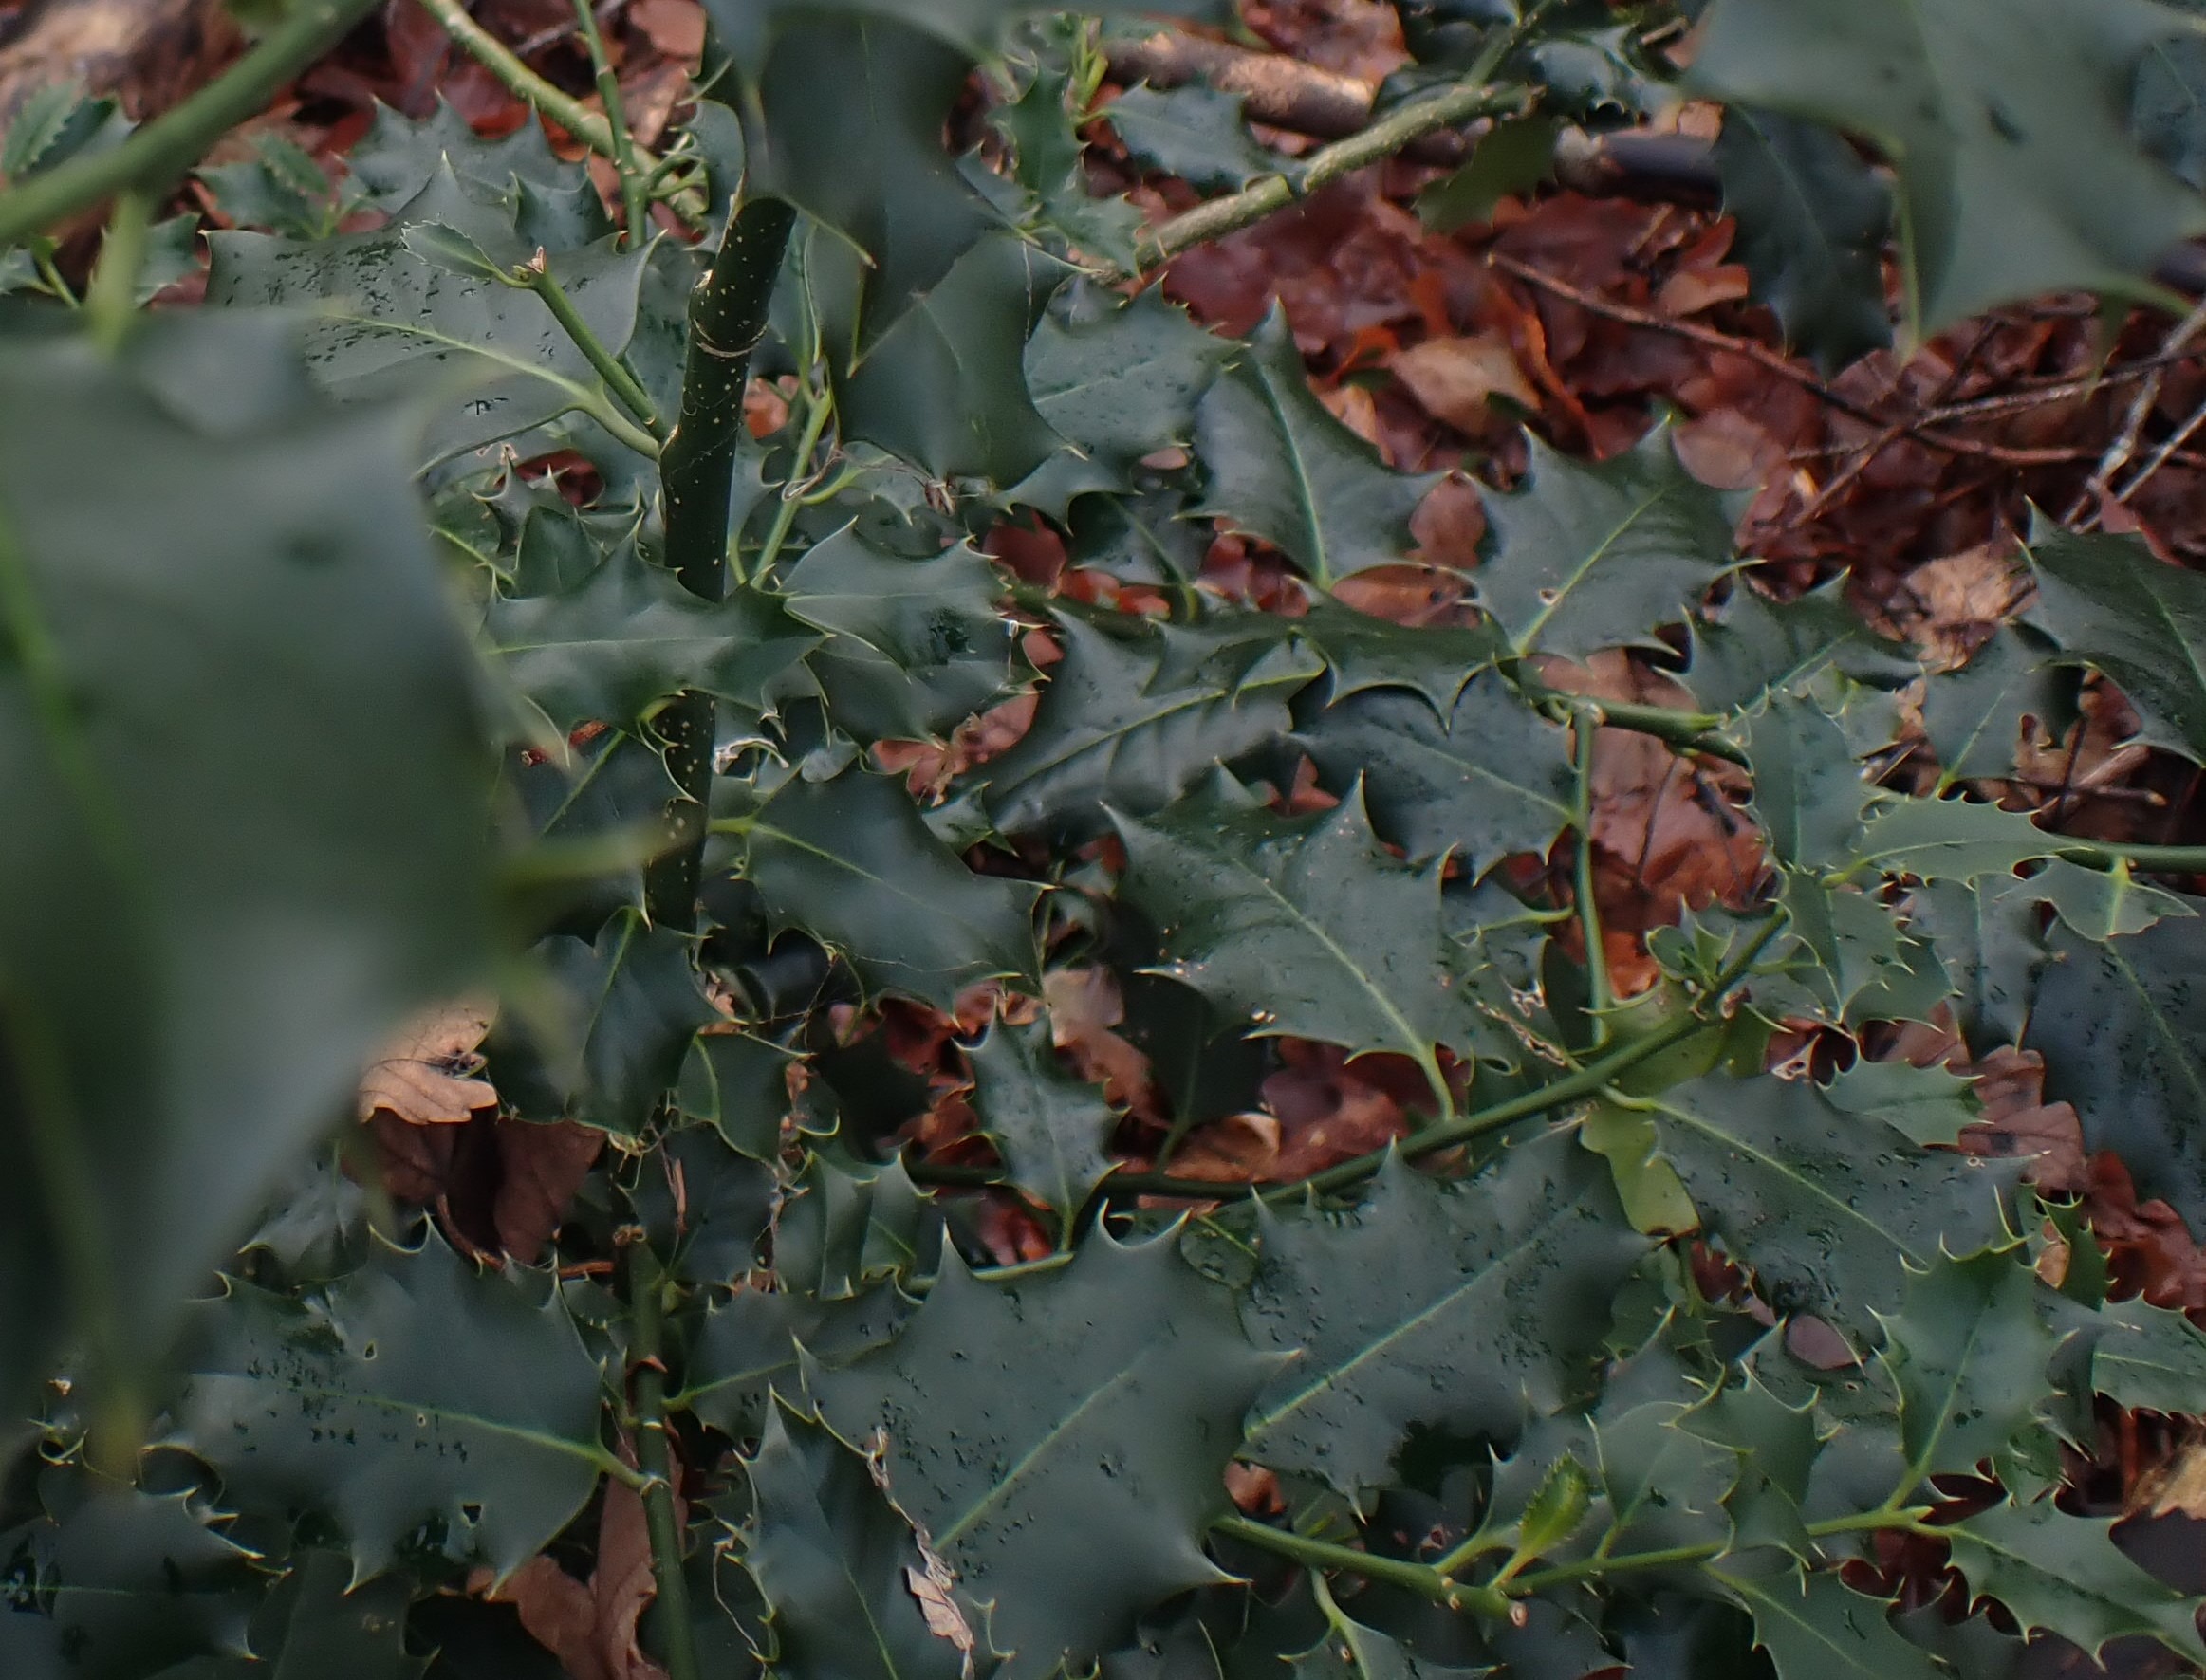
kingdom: Plantae
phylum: Tracheophyta
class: Magnoliopsida
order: Aquifoliales
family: Aquifoliaceae
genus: Ilex
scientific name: Ilex aquifolium
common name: Kristtorn
